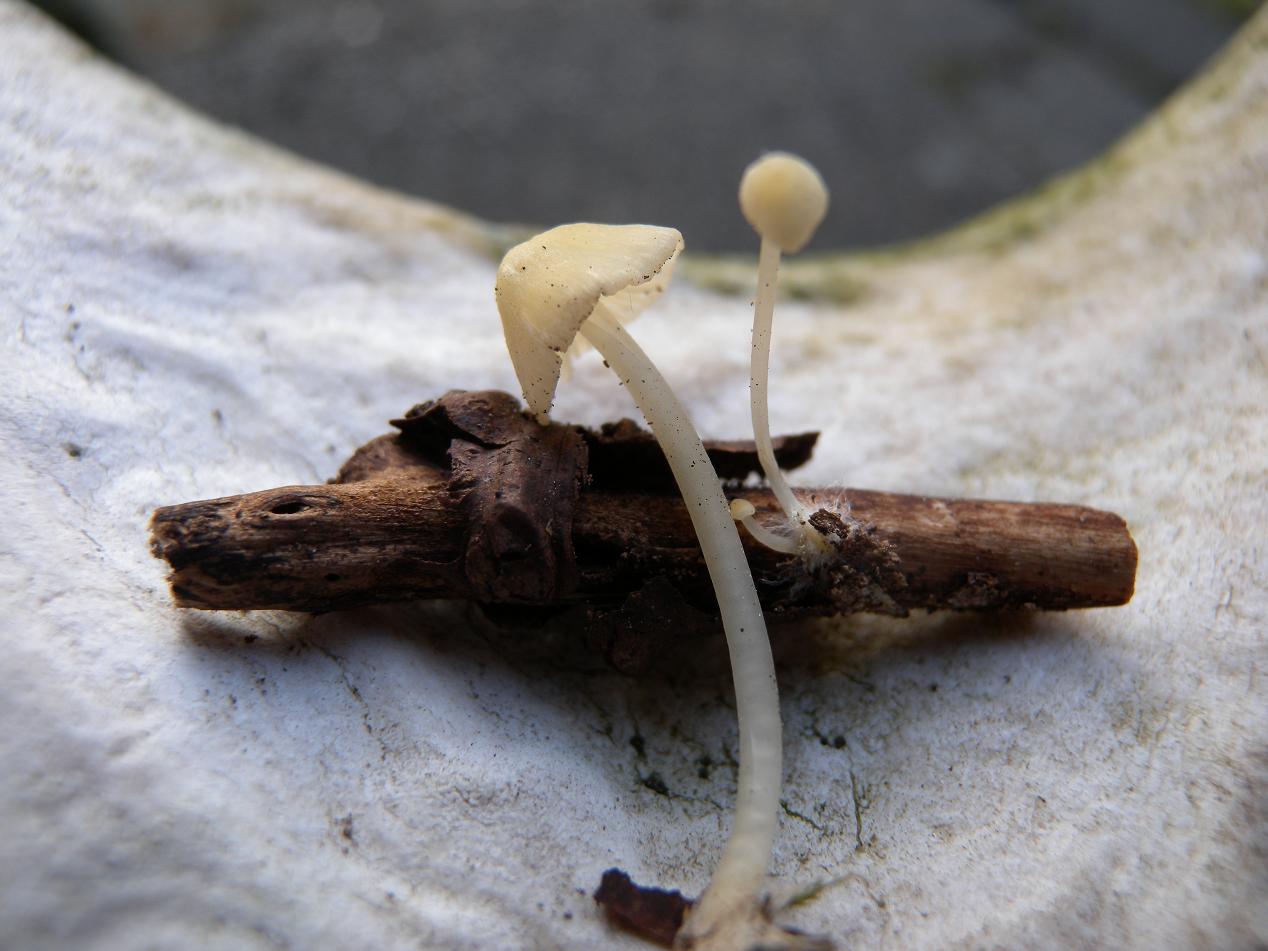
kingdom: Fungi
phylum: Basidiomycota
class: Agaricomycetes
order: Agaricales
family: Mycenaceae
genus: Atheniella
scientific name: Atheniella flavoalba
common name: gulhvid huesvamp
